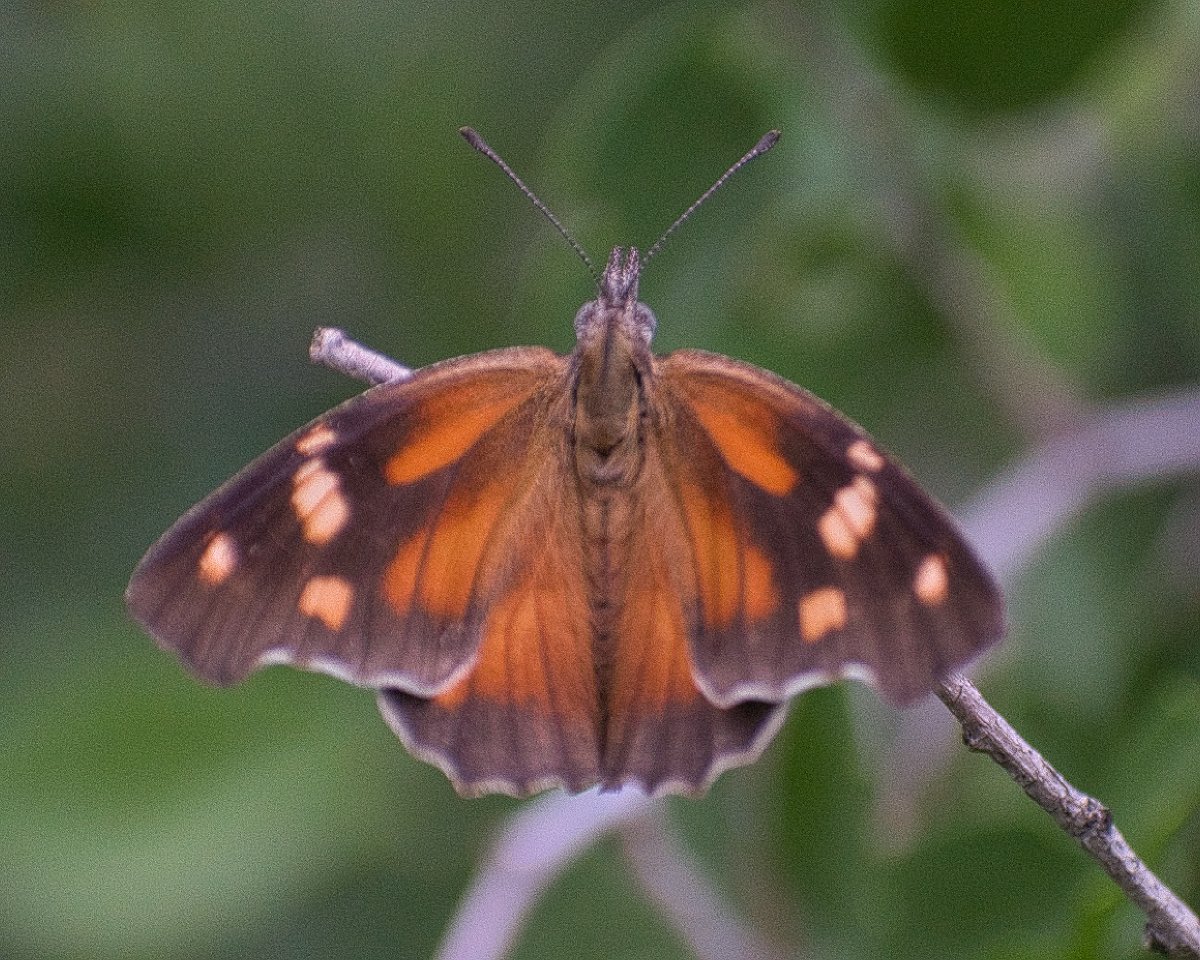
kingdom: Animalia
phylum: Arthropoda
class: Insecta
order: Lepidoptera
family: Nymphalidae
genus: Libytheana
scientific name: Libytheana carinenta
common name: American Snout
